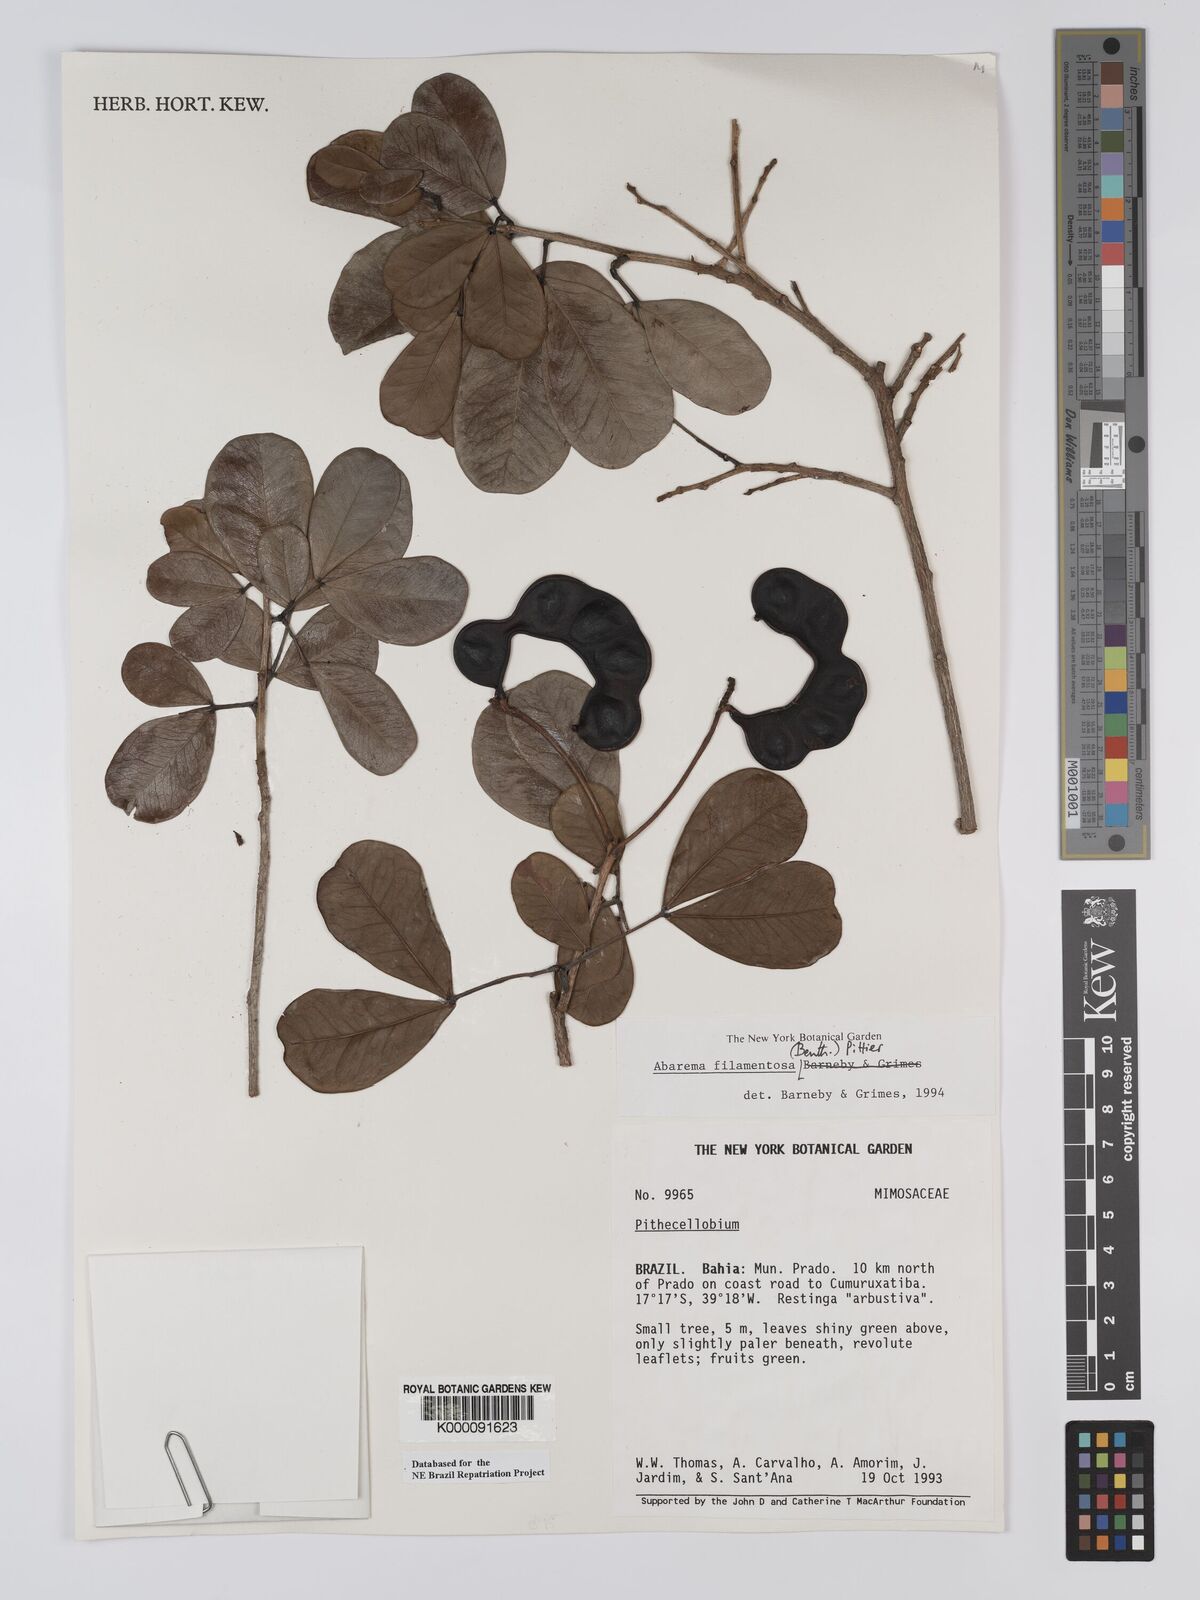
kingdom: Plantae
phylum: Tracheophyta
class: Magnoliopsida
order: Fabales
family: Fabaceae
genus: Jupunba
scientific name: Jupunba filamentosa
